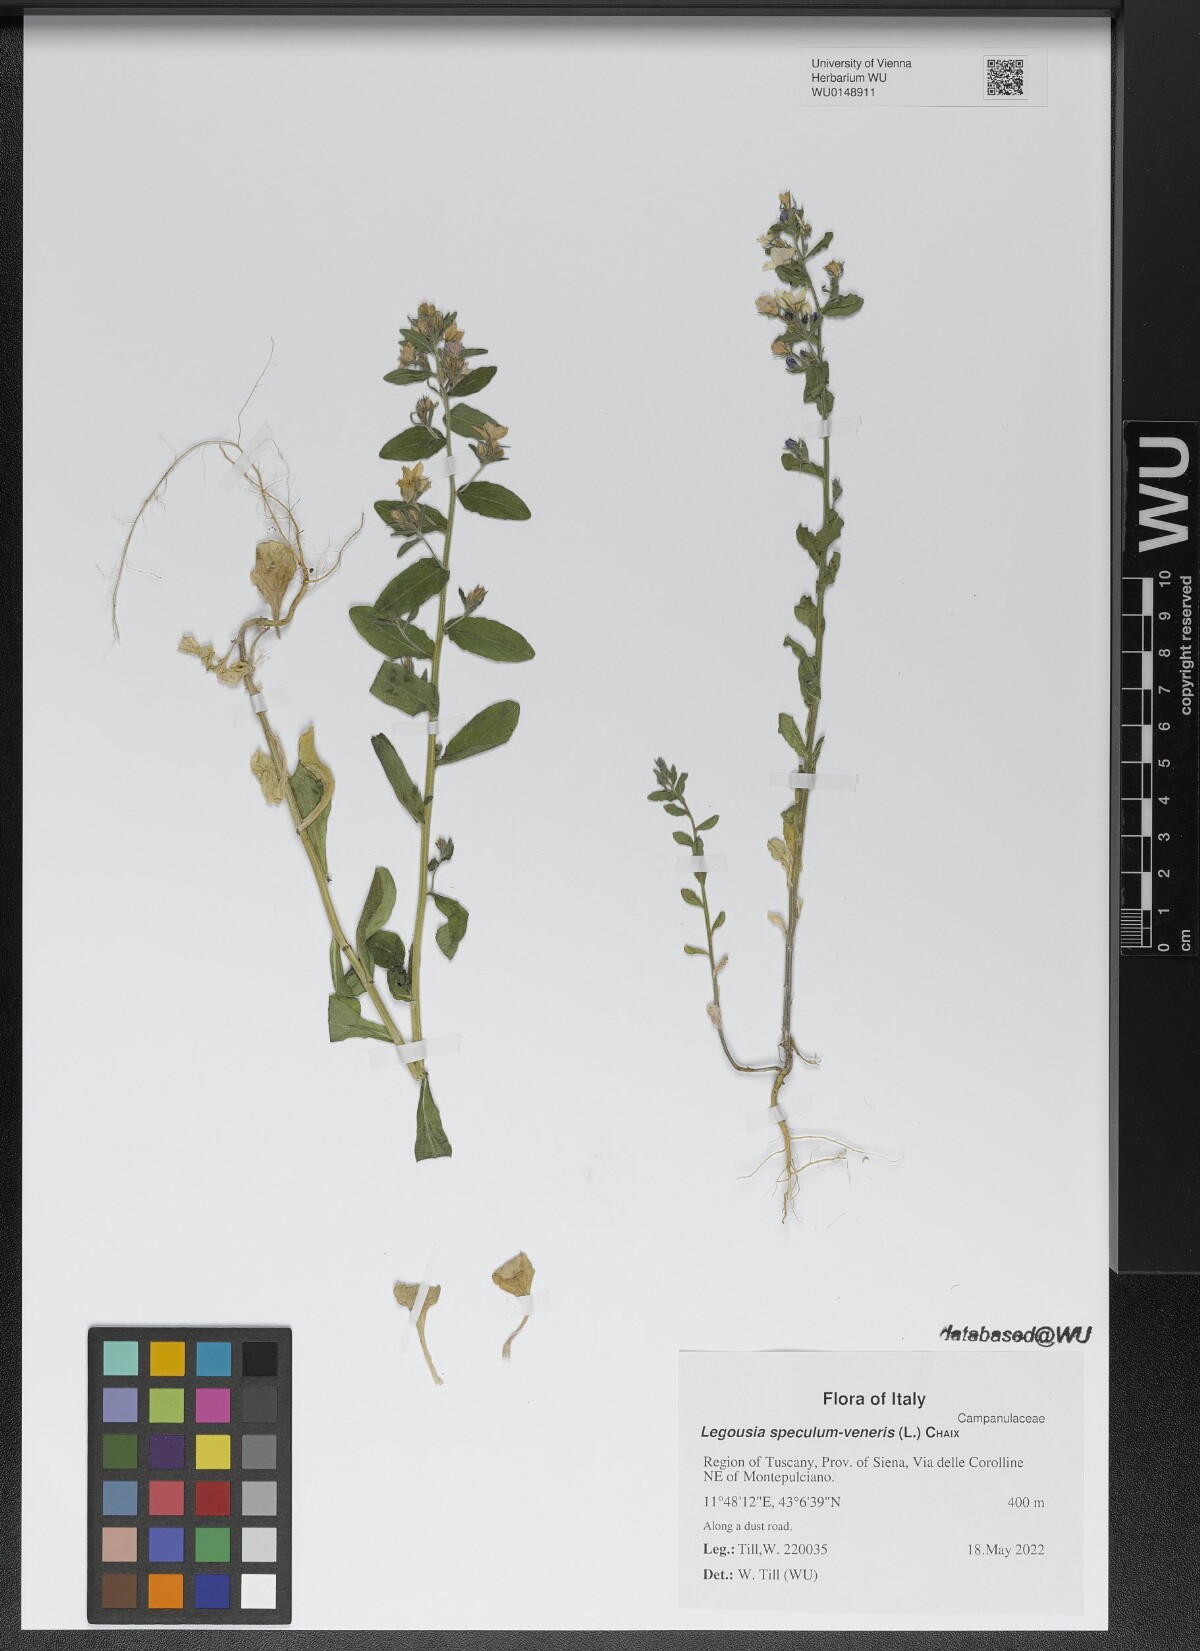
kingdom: Plantae
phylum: Tracheophyta
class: Magnoliopsida
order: Asterales
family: Campanulaceae
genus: Legousia
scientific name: Legousia speculum-veneris
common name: Large venus's-looking-glass
